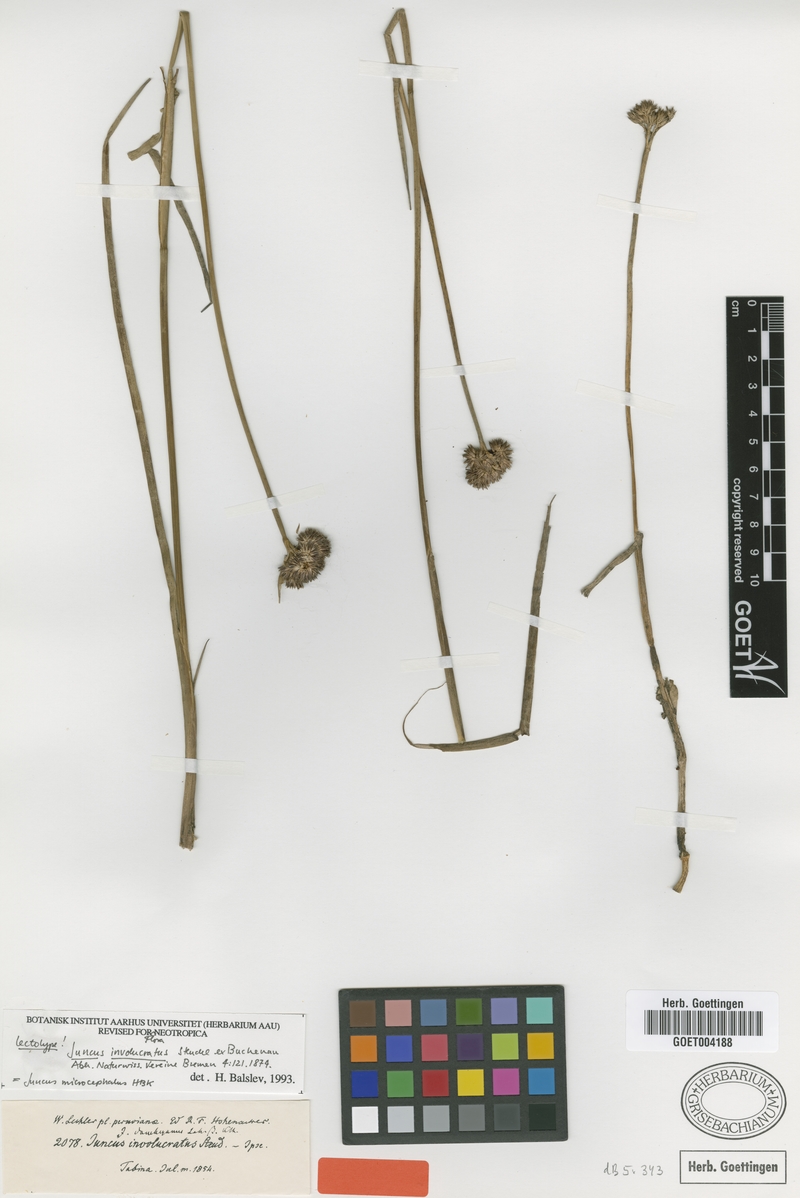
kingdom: Plantae
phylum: Tracheophyta
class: Liliopsida
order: Poales
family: Juncaceae
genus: Juncus
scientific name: Juncus microcephalus
